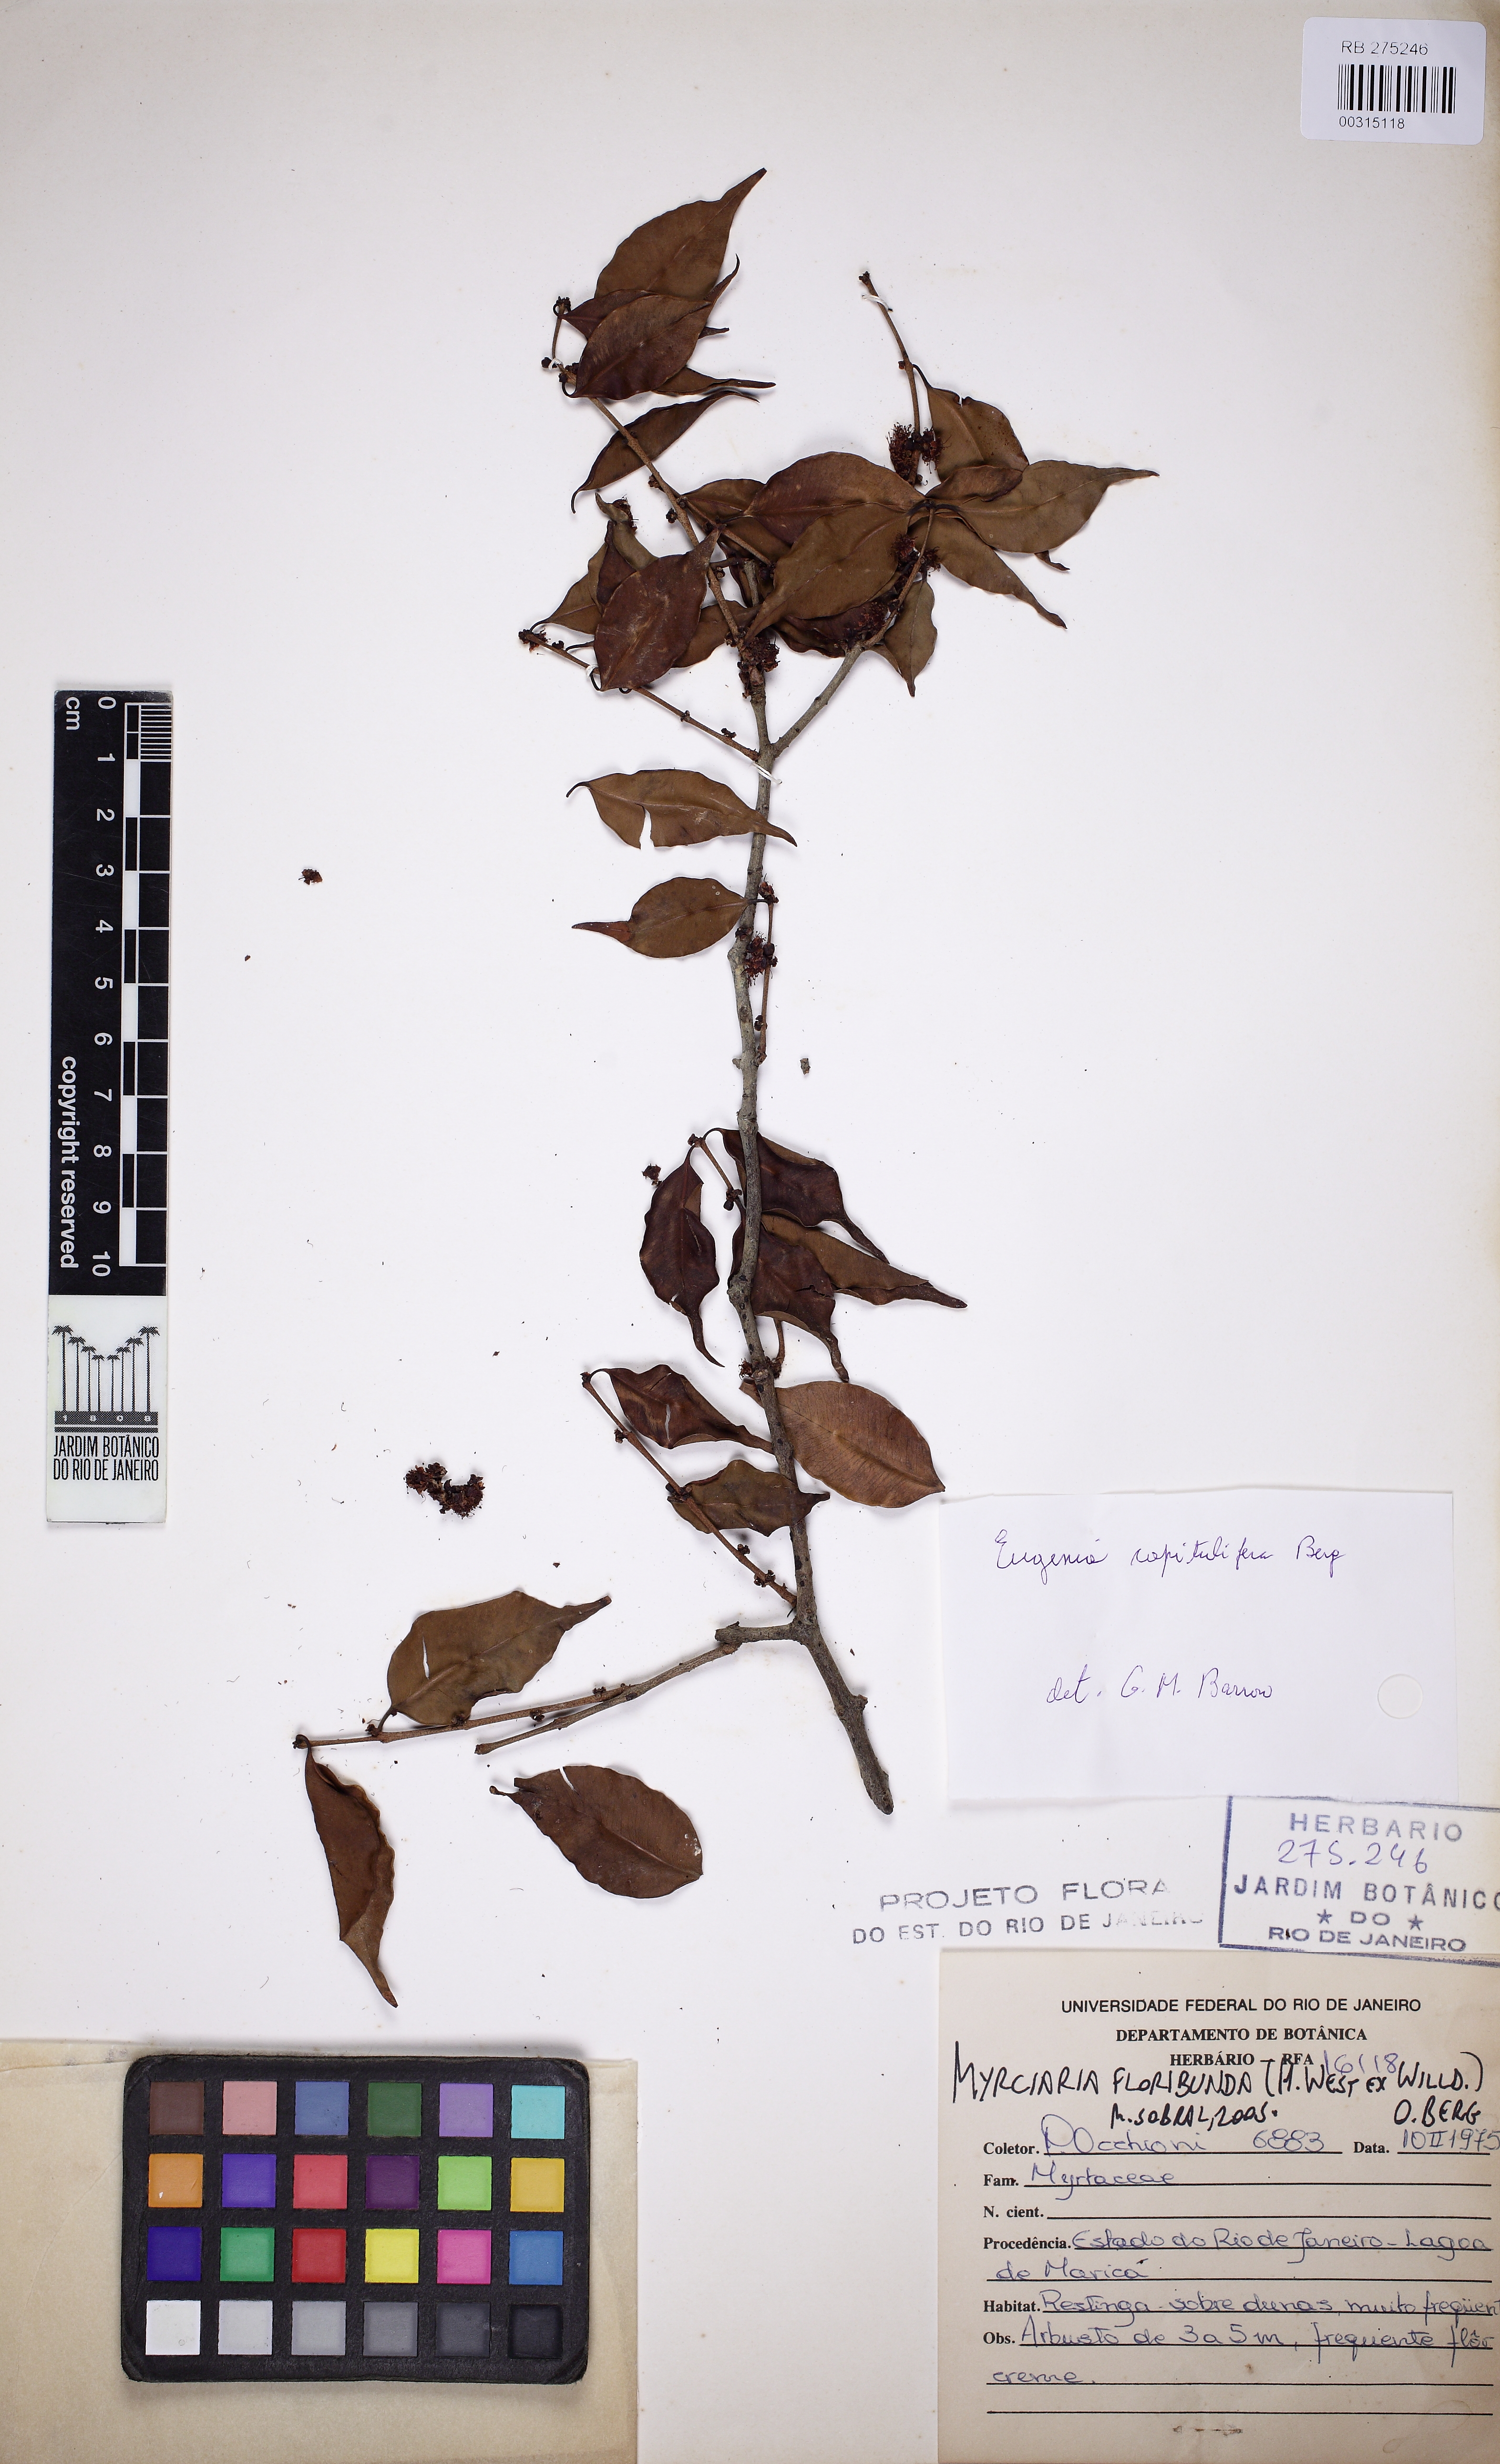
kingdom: Plantae
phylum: Tracheophyta
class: Magnoliopsida
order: Myrtales
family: Myrtaceae
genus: Myrciaria
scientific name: Myrciaria floribunda
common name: Guavaberry
